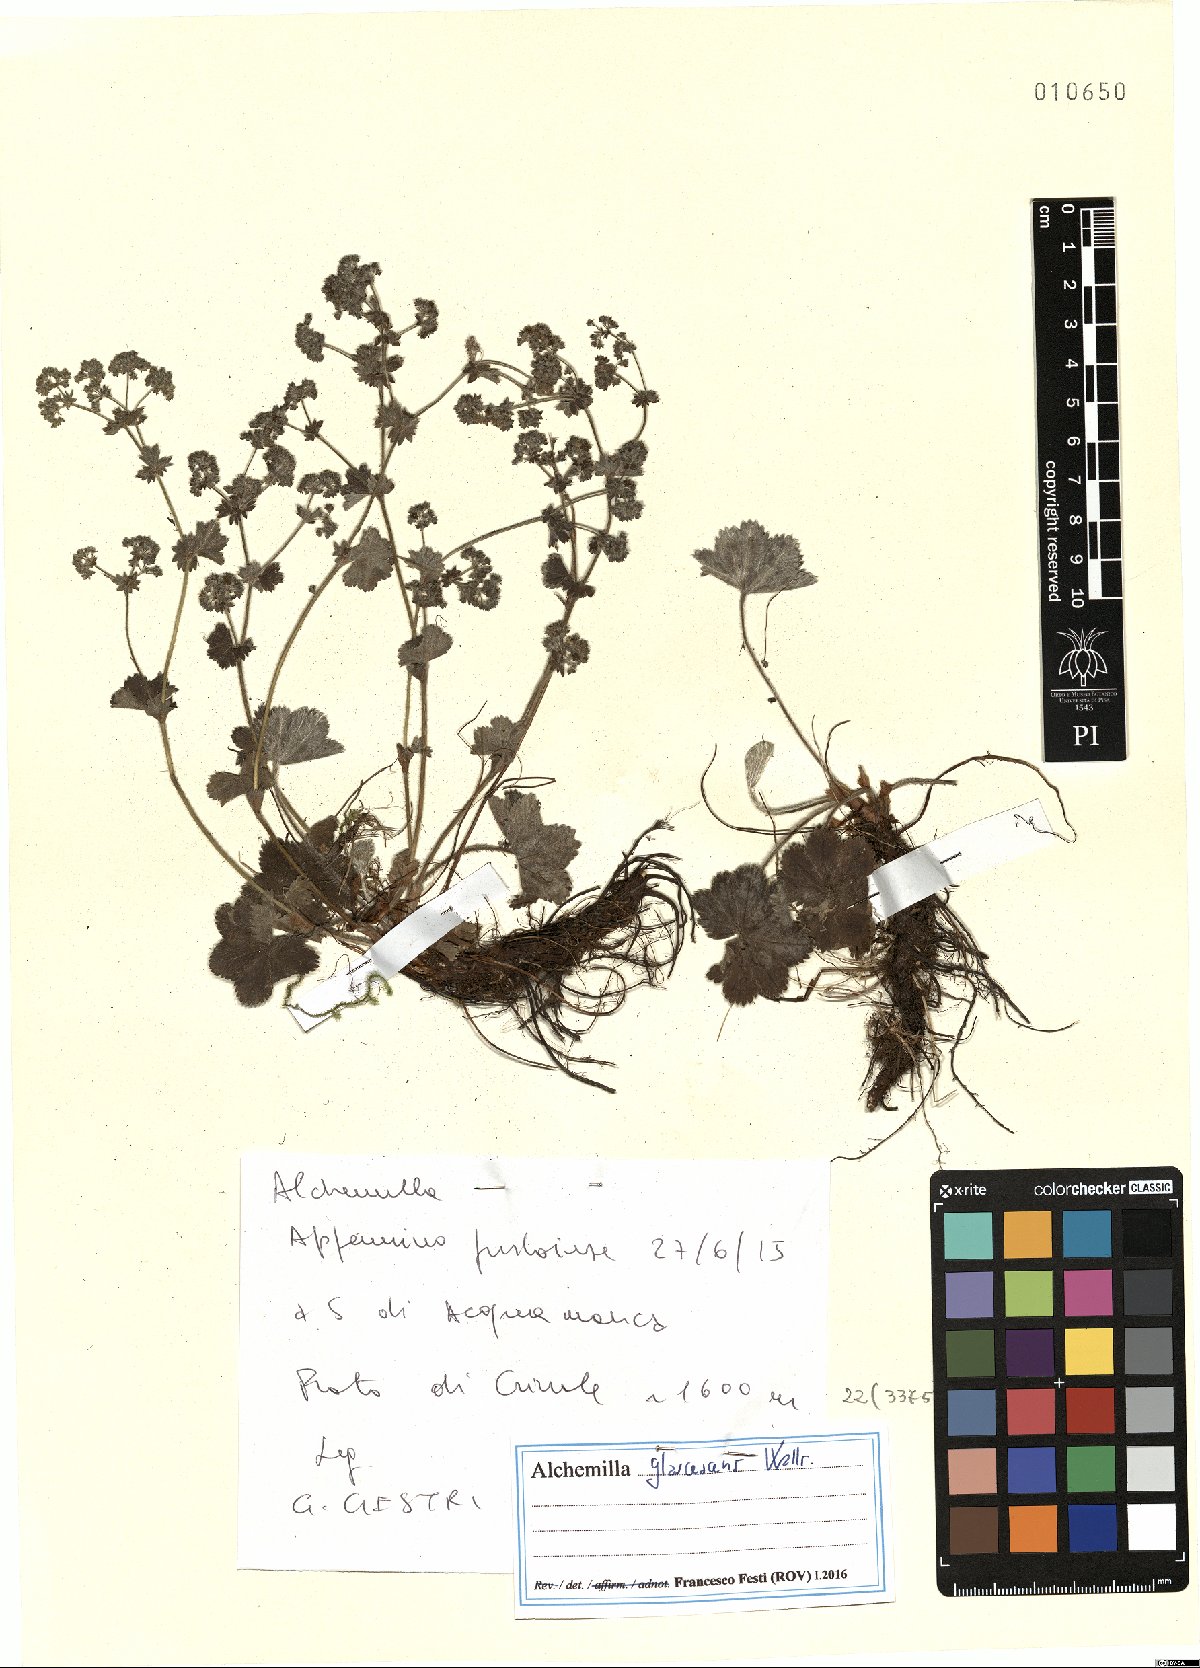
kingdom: Plantae
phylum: Tracheophyta
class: Magnoliopsida
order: Rosales
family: Rosaceae
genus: Alchemilla
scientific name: Alchemilla glaucescens
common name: Silky lady's mantle
